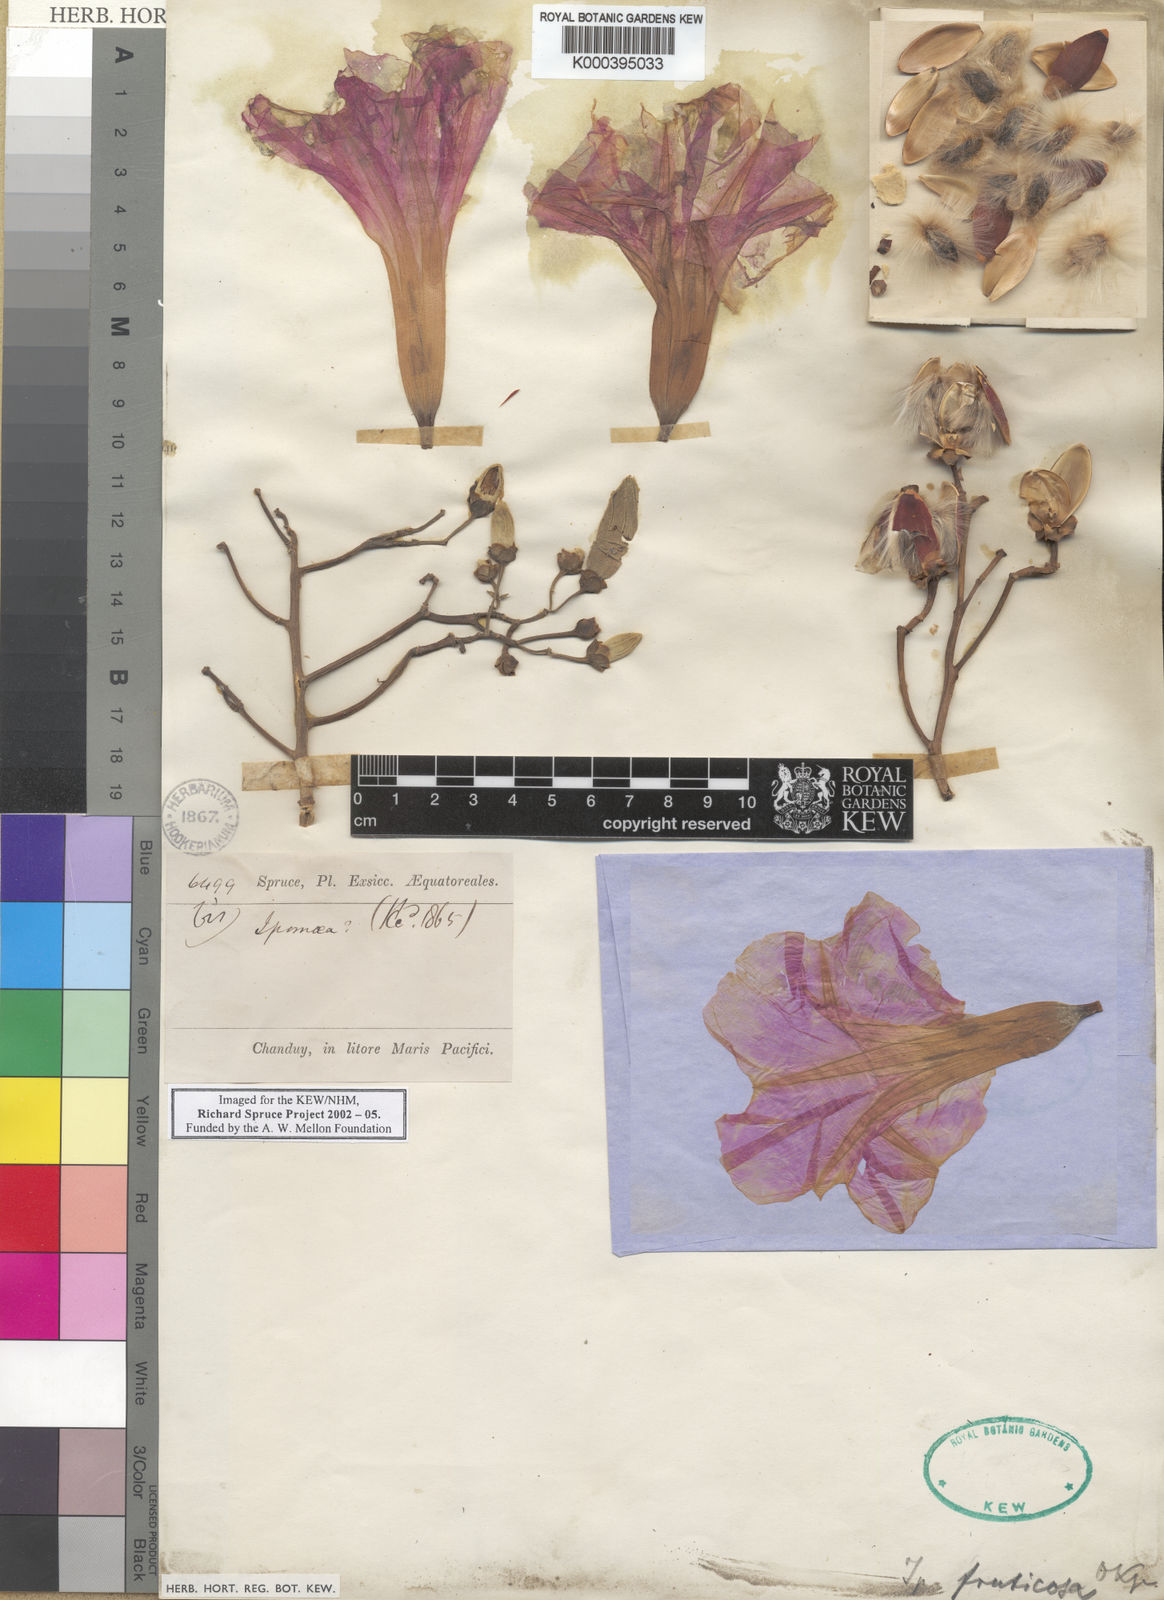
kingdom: Plantae
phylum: Tracheophyta
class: Magnoliopsida
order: Solanales
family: Convolvulaceae
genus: Ipomoea
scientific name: Ipomoea carnea
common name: Morning-glory
